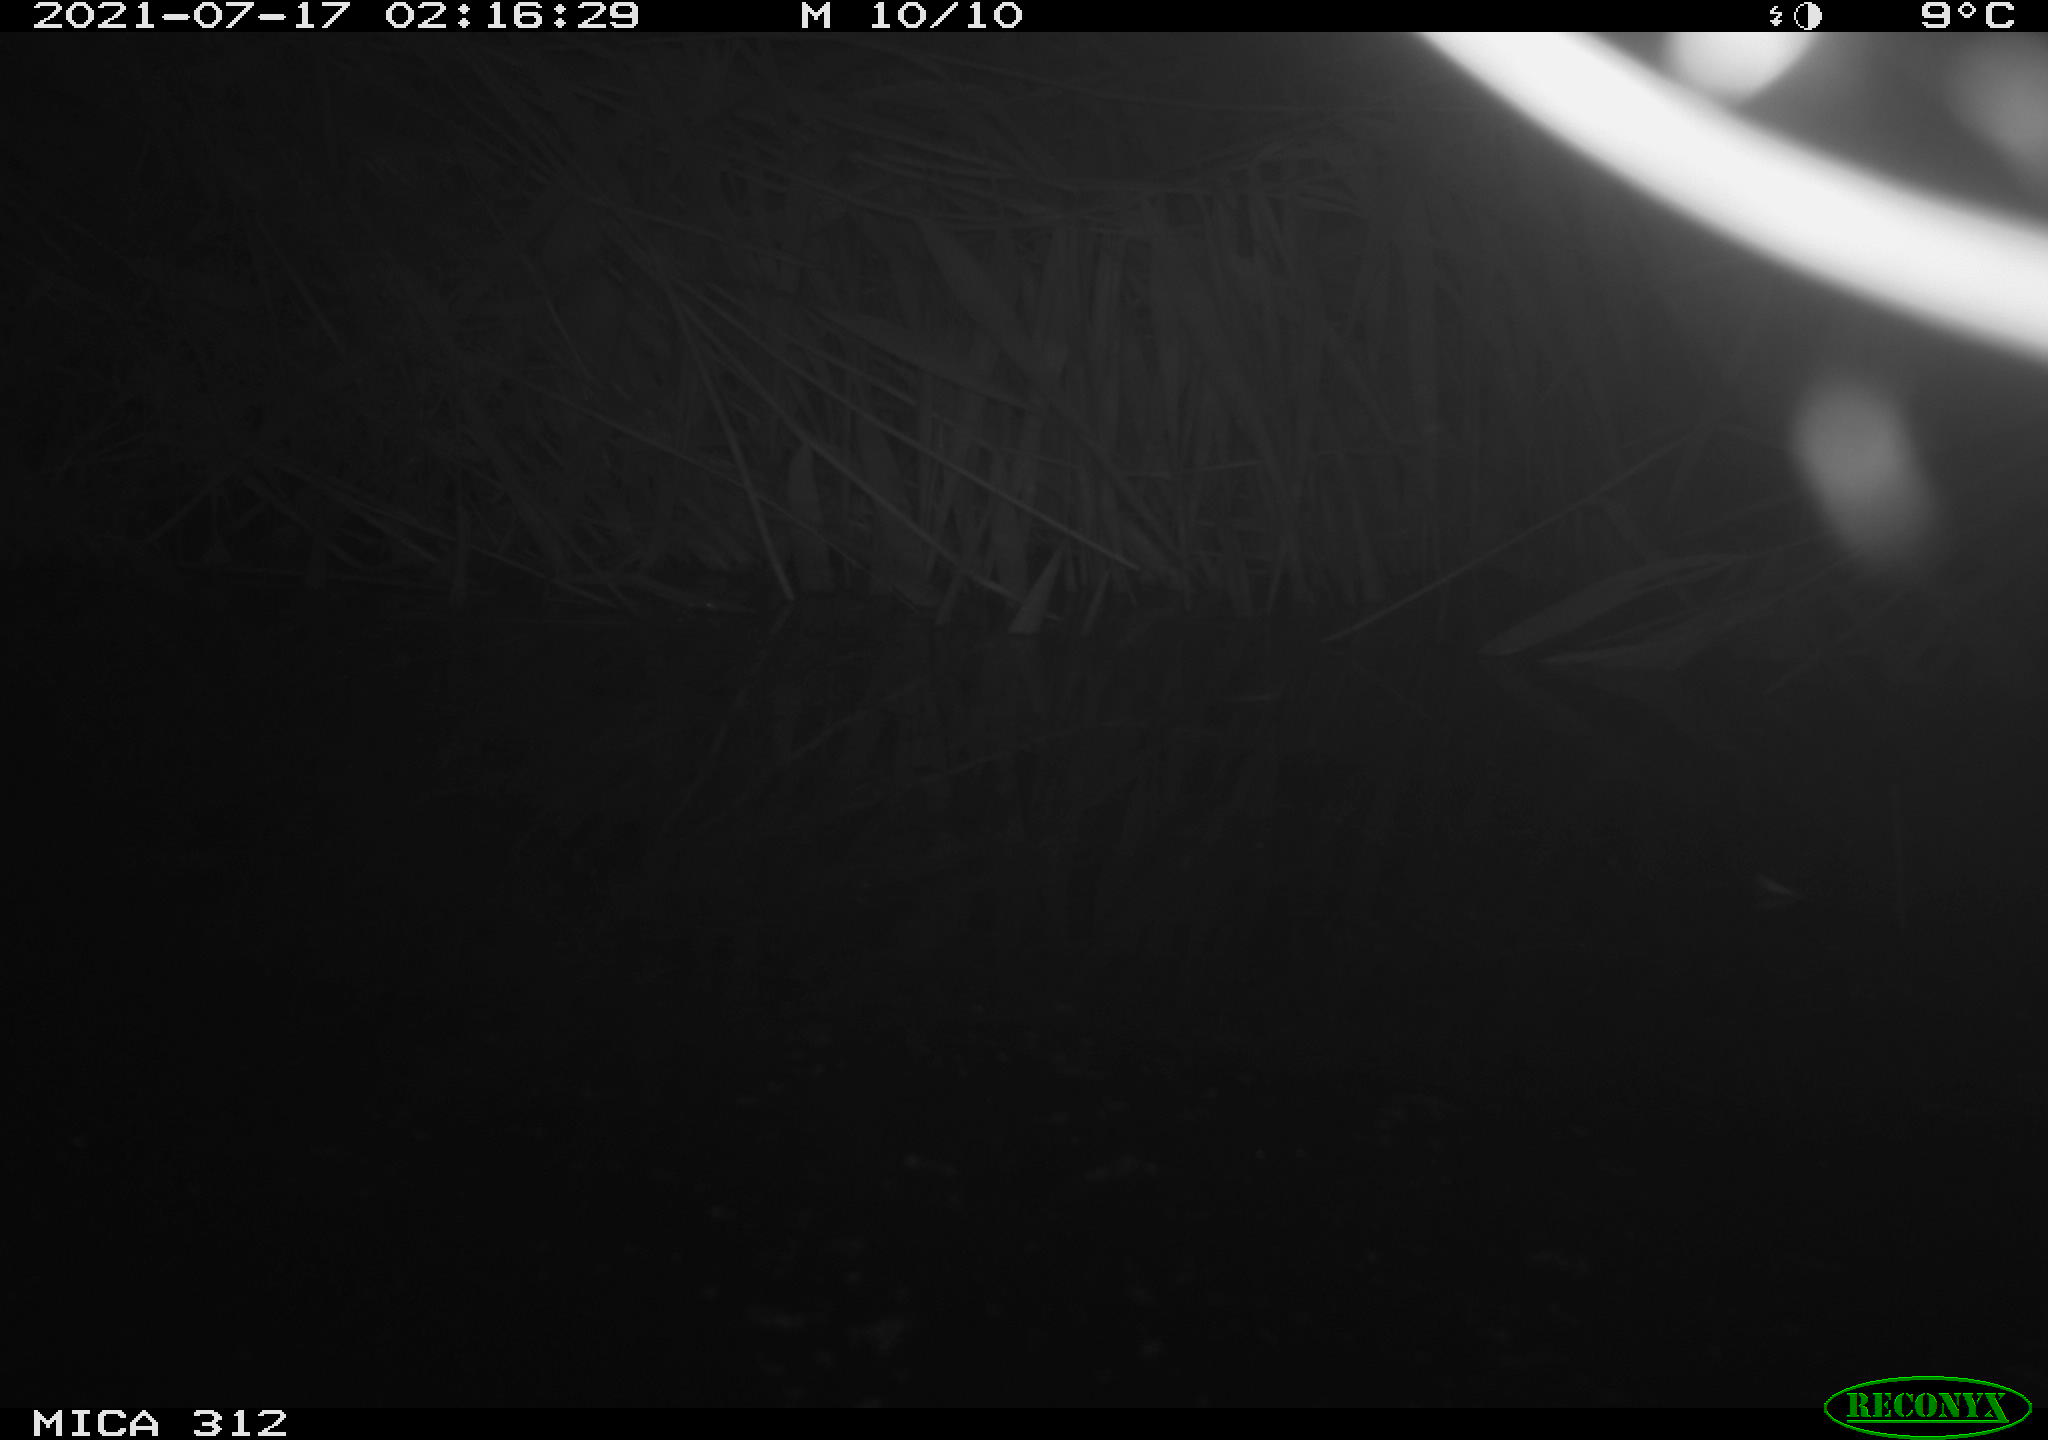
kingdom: Animalia
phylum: Chordata
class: Mammalia
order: Rodentia
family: Muridae
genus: Rattus
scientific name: Rattus norvegicus
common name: Brown rat
